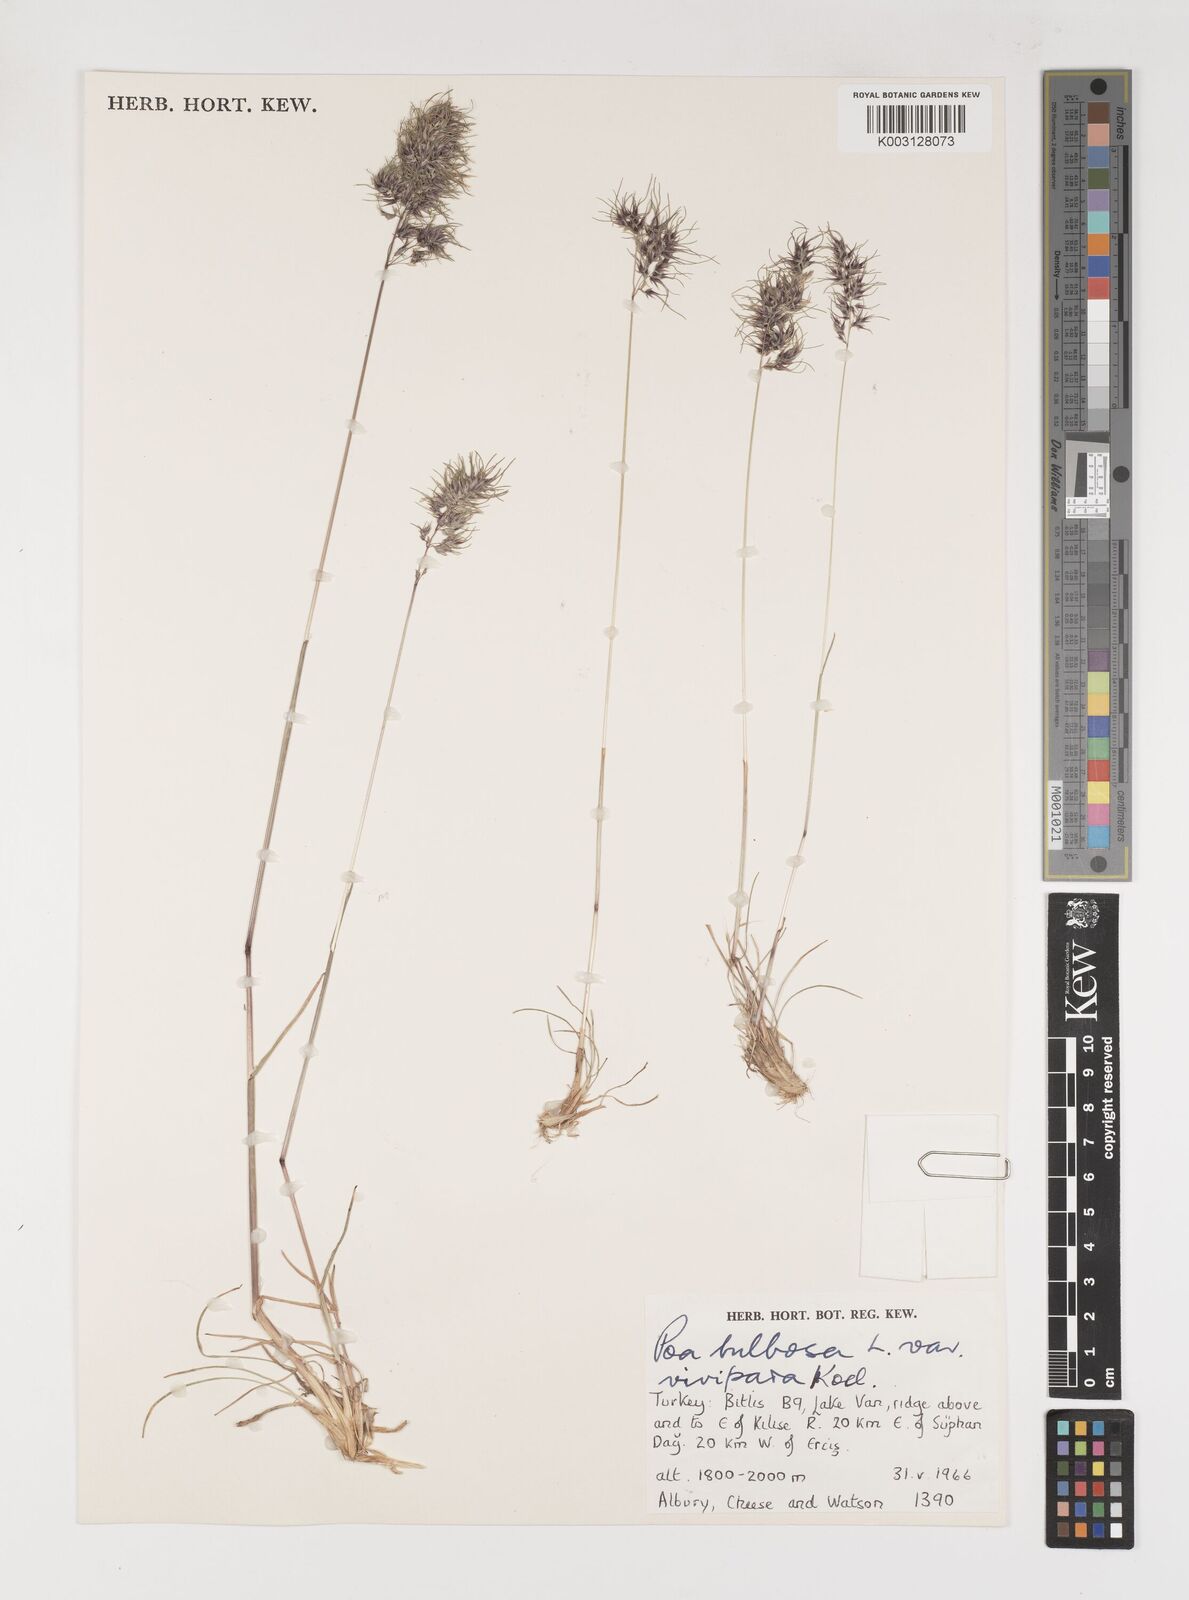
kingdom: Plantae
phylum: Tracheophyta
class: Liliopsida
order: Poales
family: Poaceae
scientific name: Poaceae
